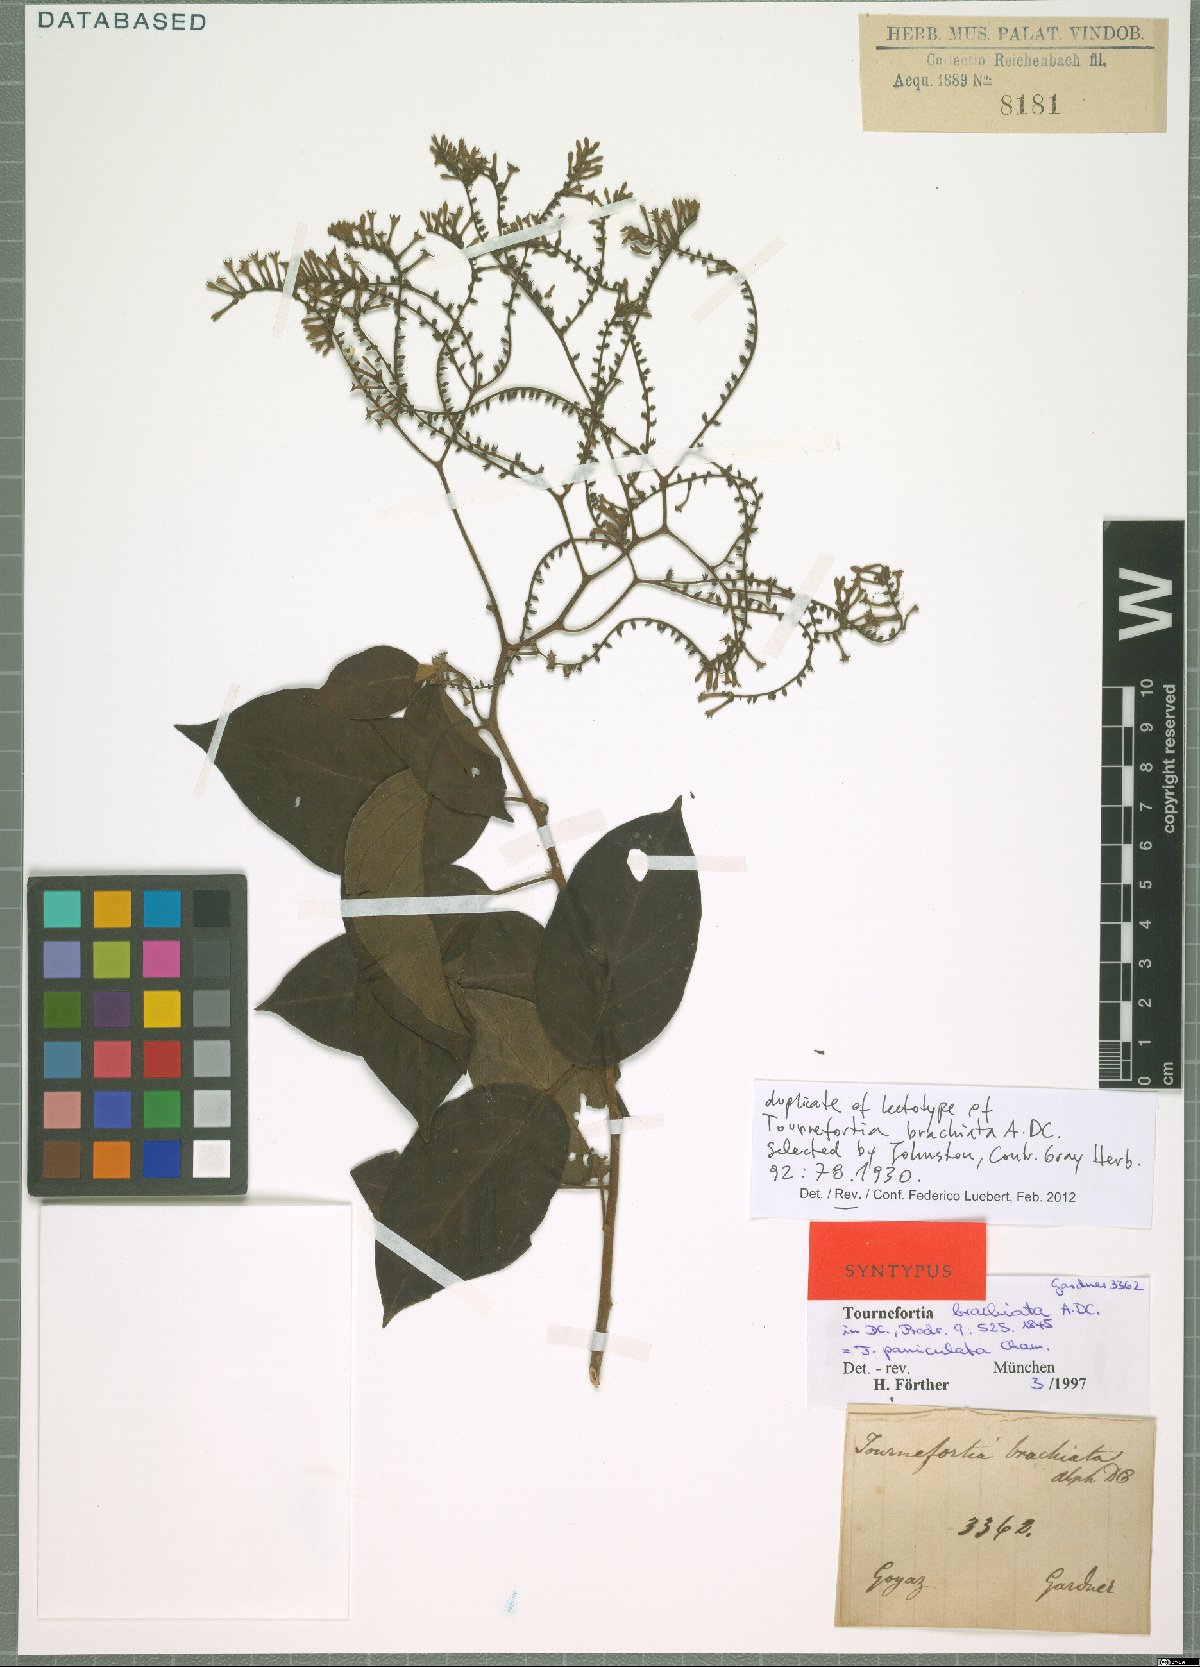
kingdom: Plantae
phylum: Tracheophyta
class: Magnoliopsida
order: Boraginales
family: Heliotropiaceae
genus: Myriopus
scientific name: Myriopus paniculatus
